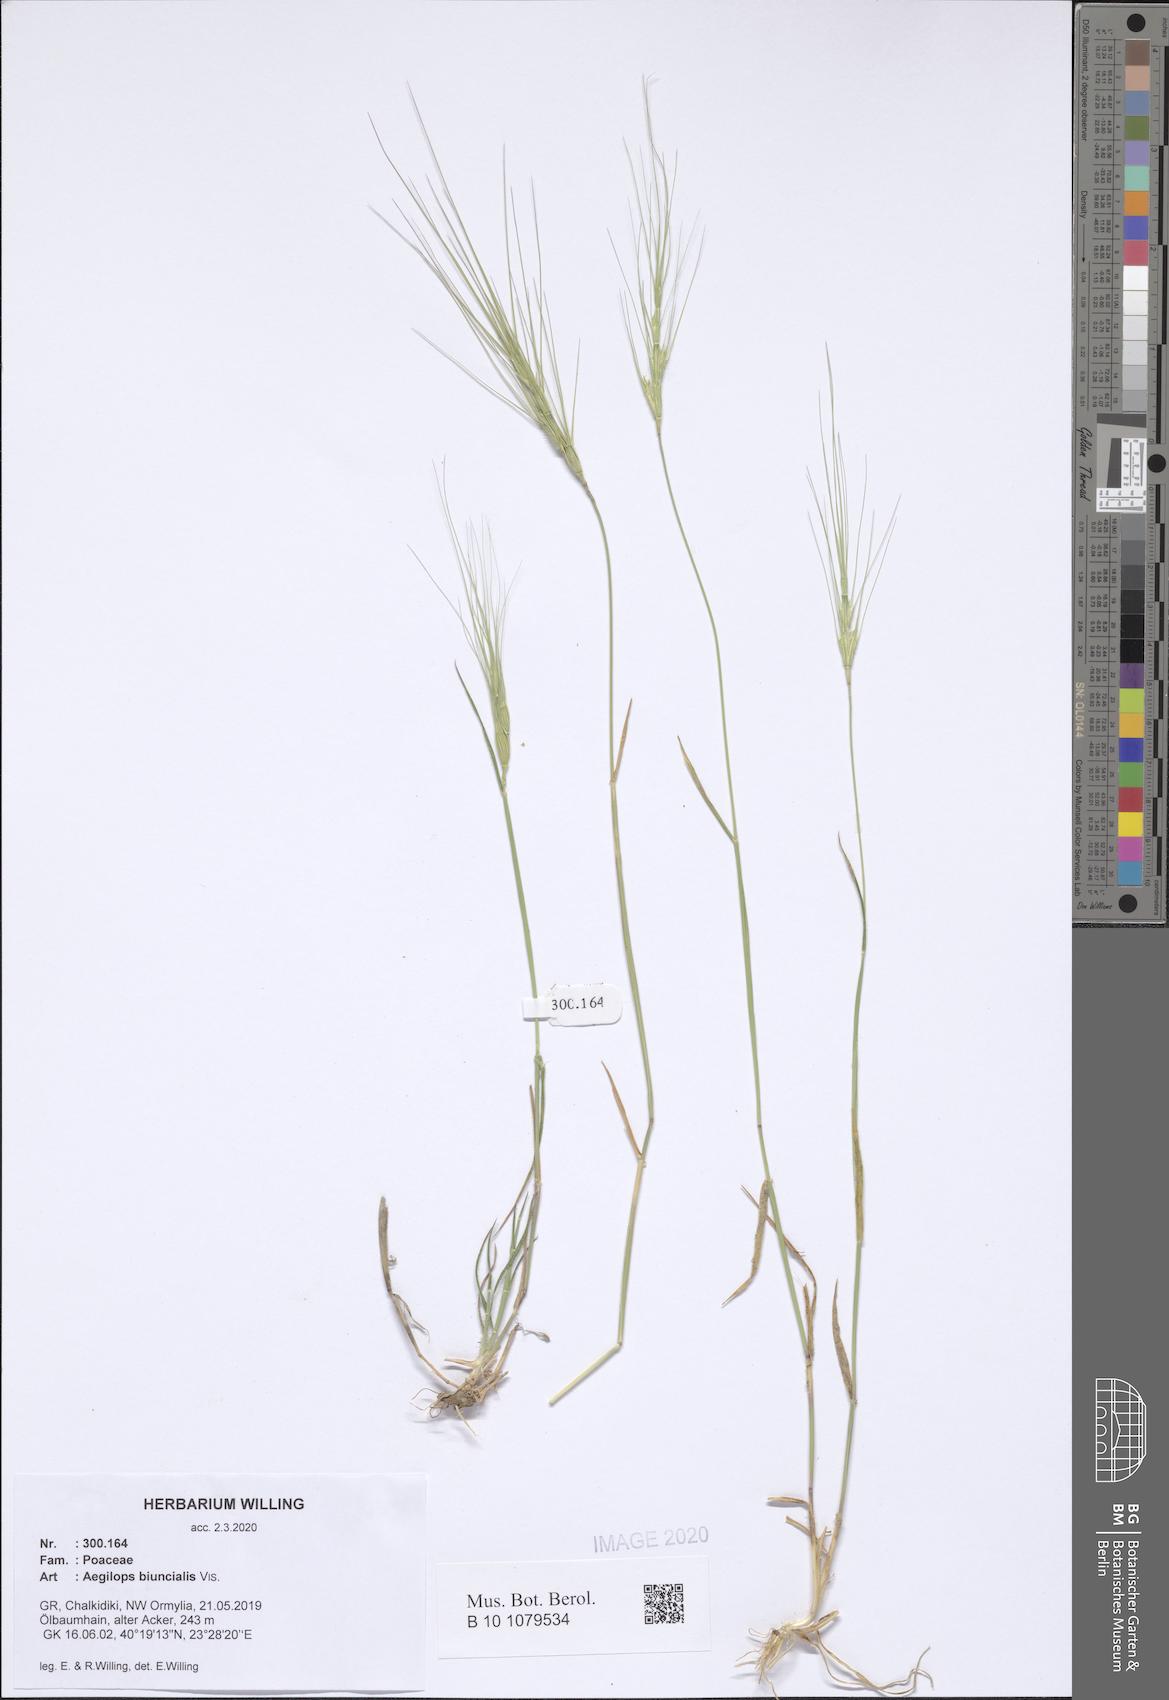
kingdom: Plantae
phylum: Tracheophyta
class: Liliopsida
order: Poales
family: Poaceae
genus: Aegilops
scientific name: Aegilops biuncialis
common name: Mediterranean aegilops
